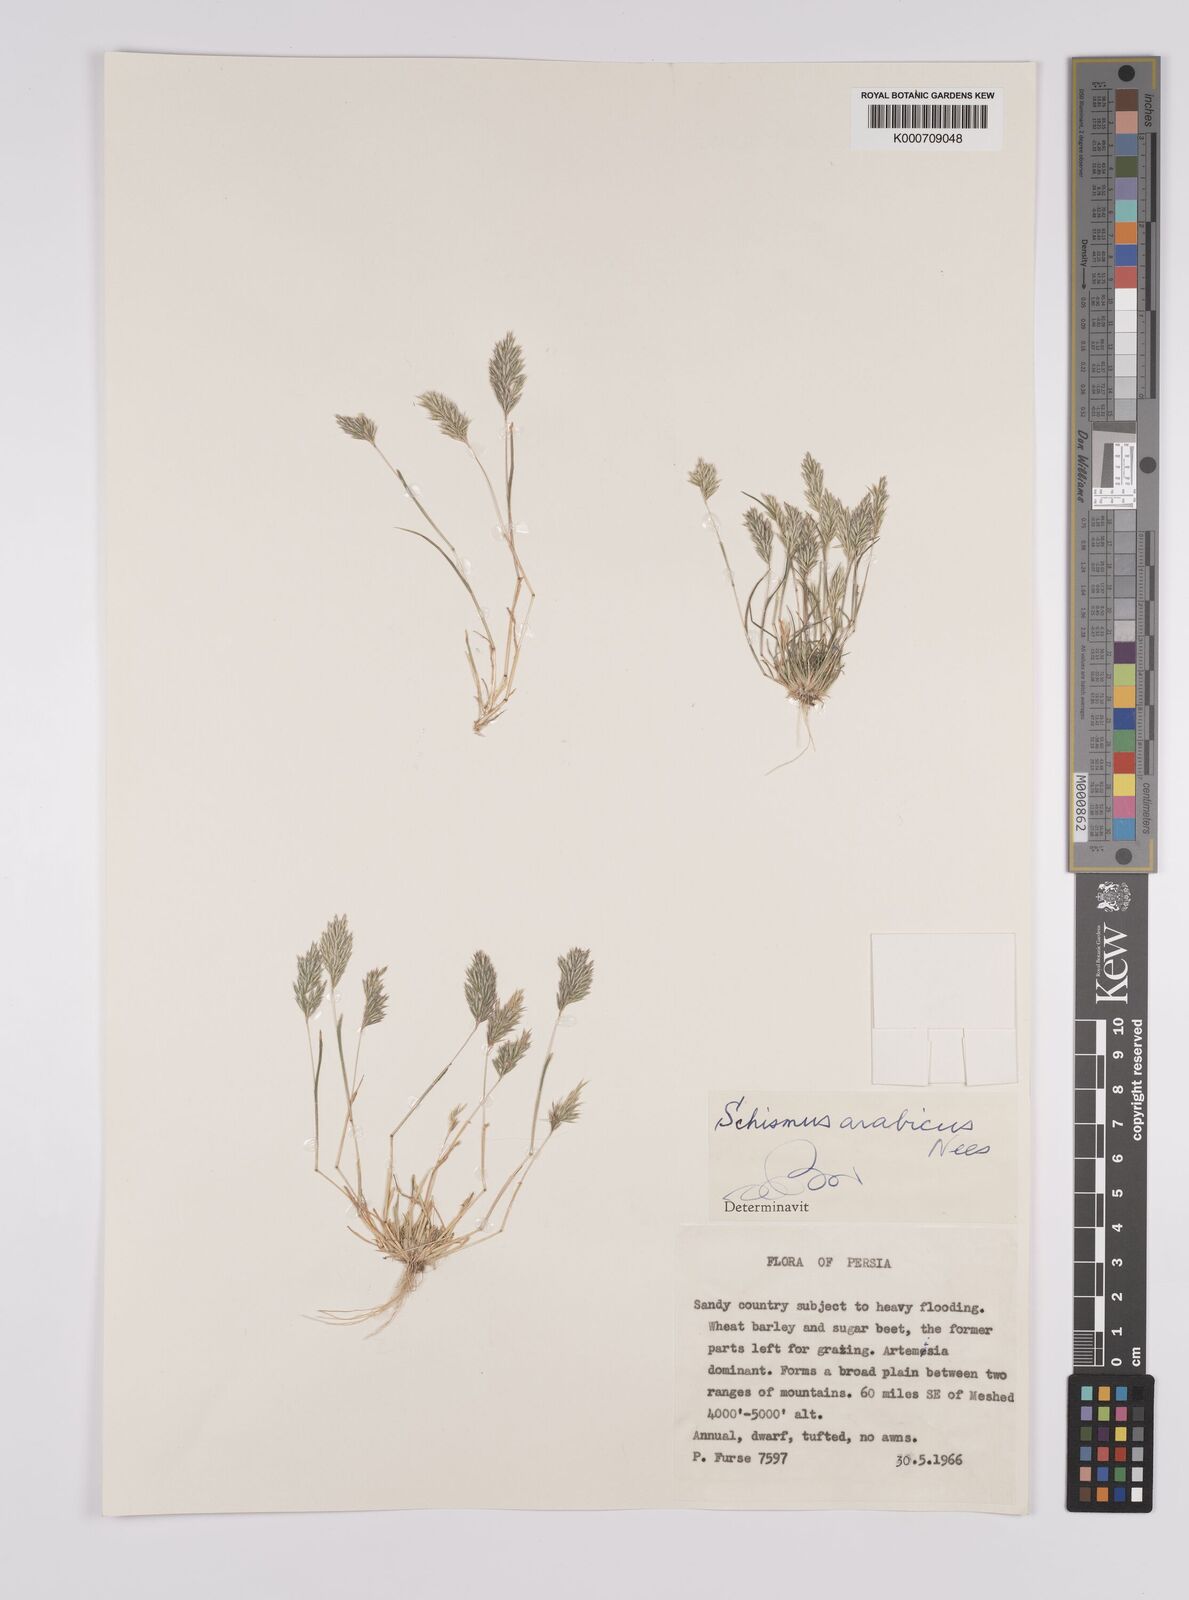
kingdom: Plantae
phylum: Tracheophyta
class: Liliopsida
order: Poales
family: Poaceae
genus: Schismus
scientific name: Schismus arabicus
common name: Arabian schismus
